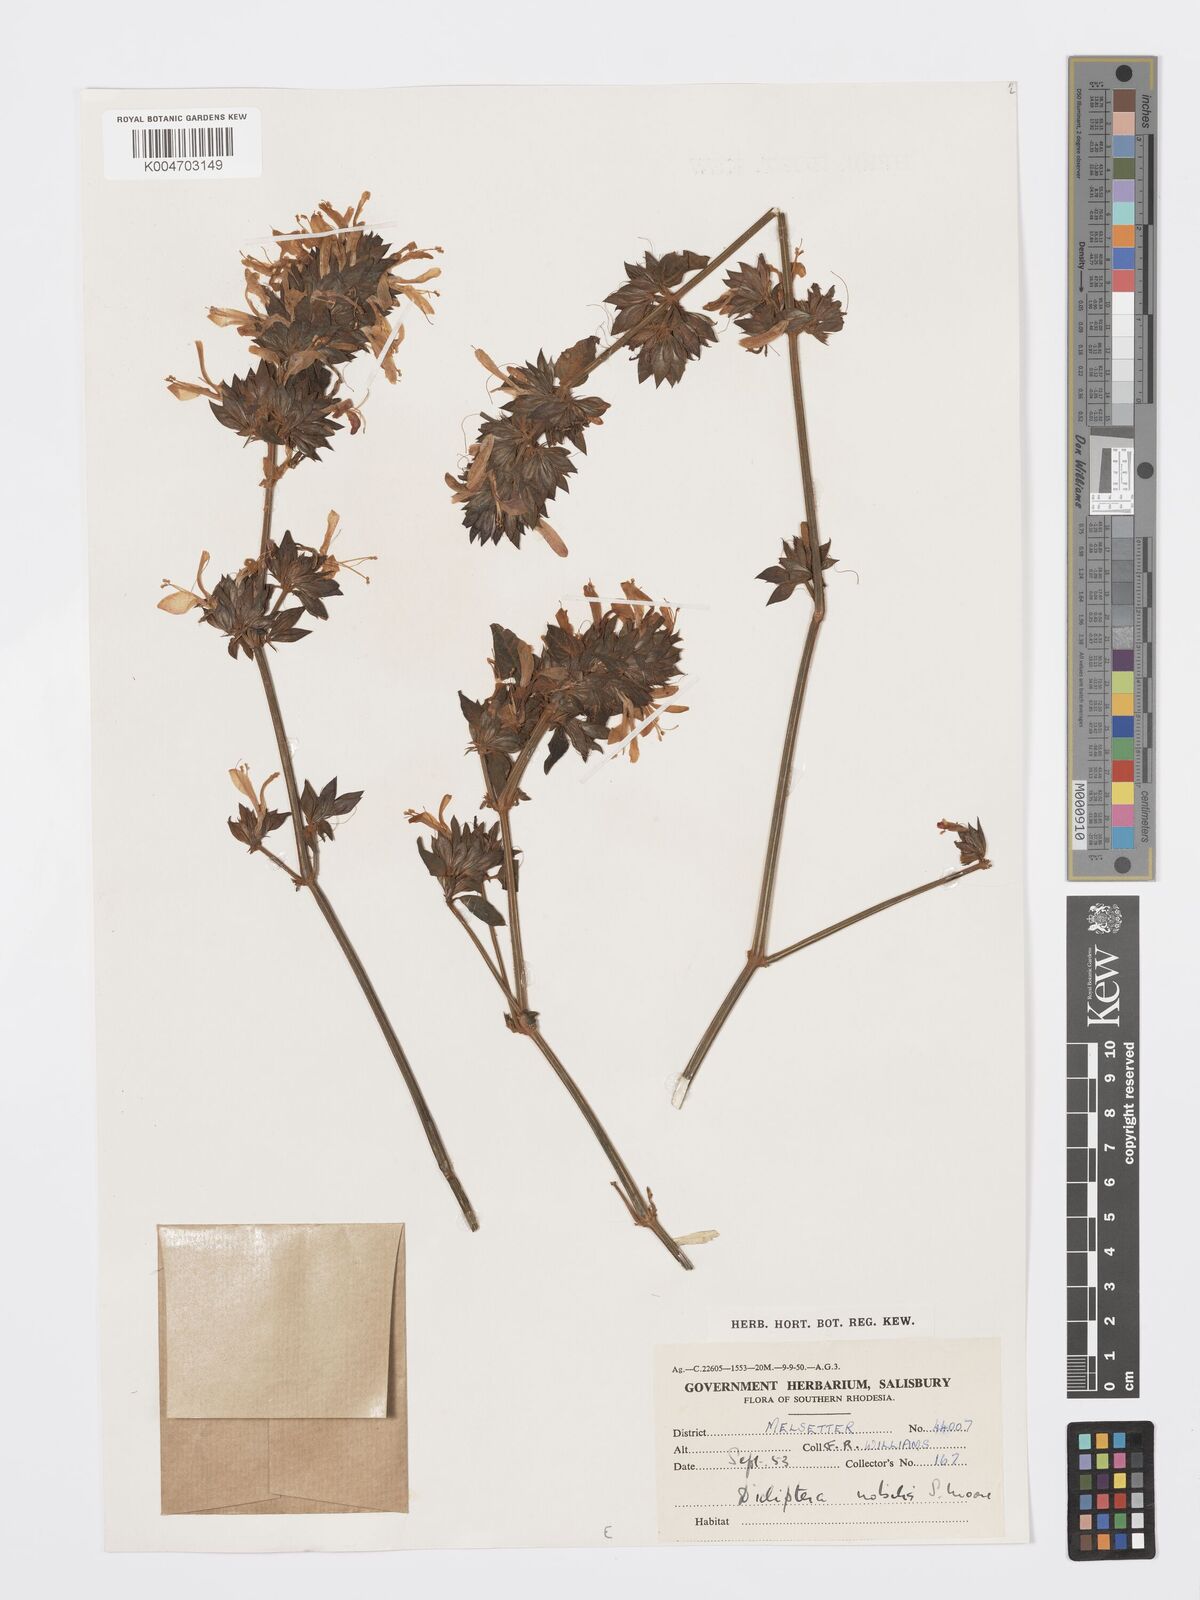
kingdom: Plantae
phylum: Tracheophyta
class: Magnoliopsida
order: Lamiales
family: Acanthaceae
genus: Dicliptera
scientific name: Dicliptera clinopodia
